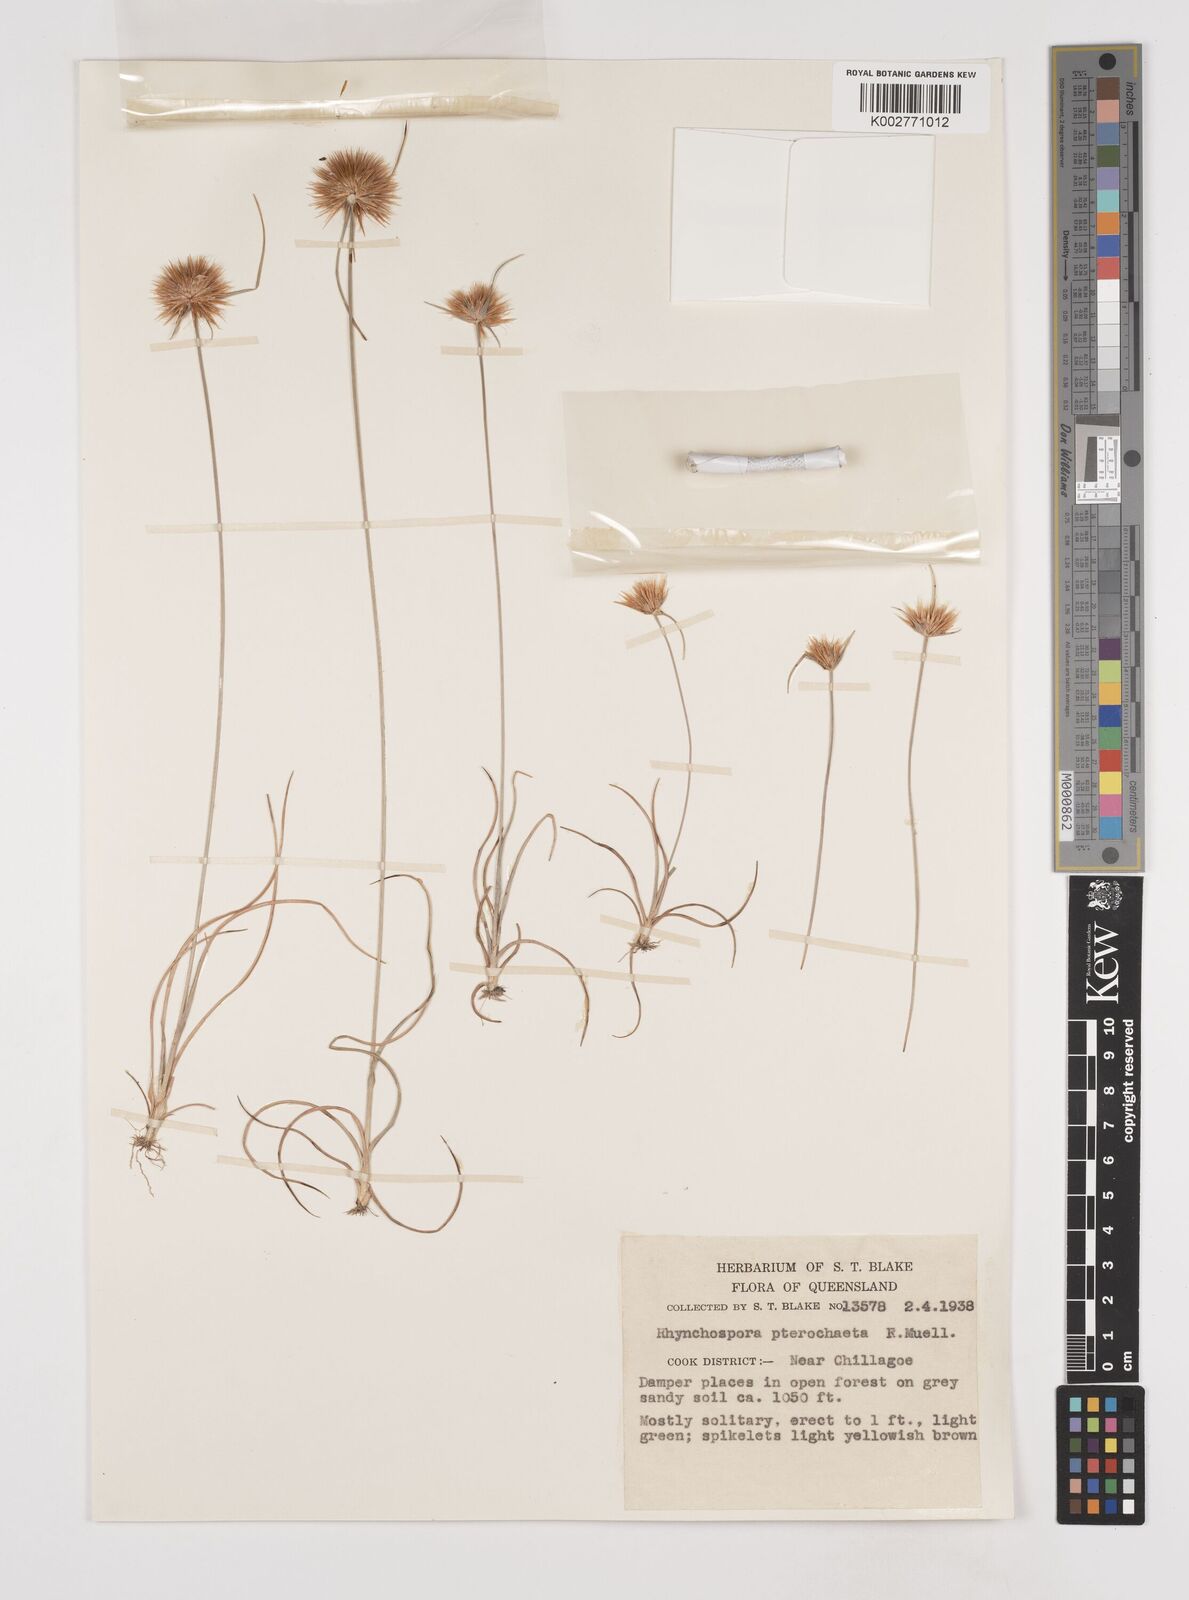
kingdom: Plantae
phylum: Tracheophyta
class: Liliopsida
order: Poales
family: Cyperaceae
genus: Rhynchospora
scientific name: Rhynchospora pterochaeta
